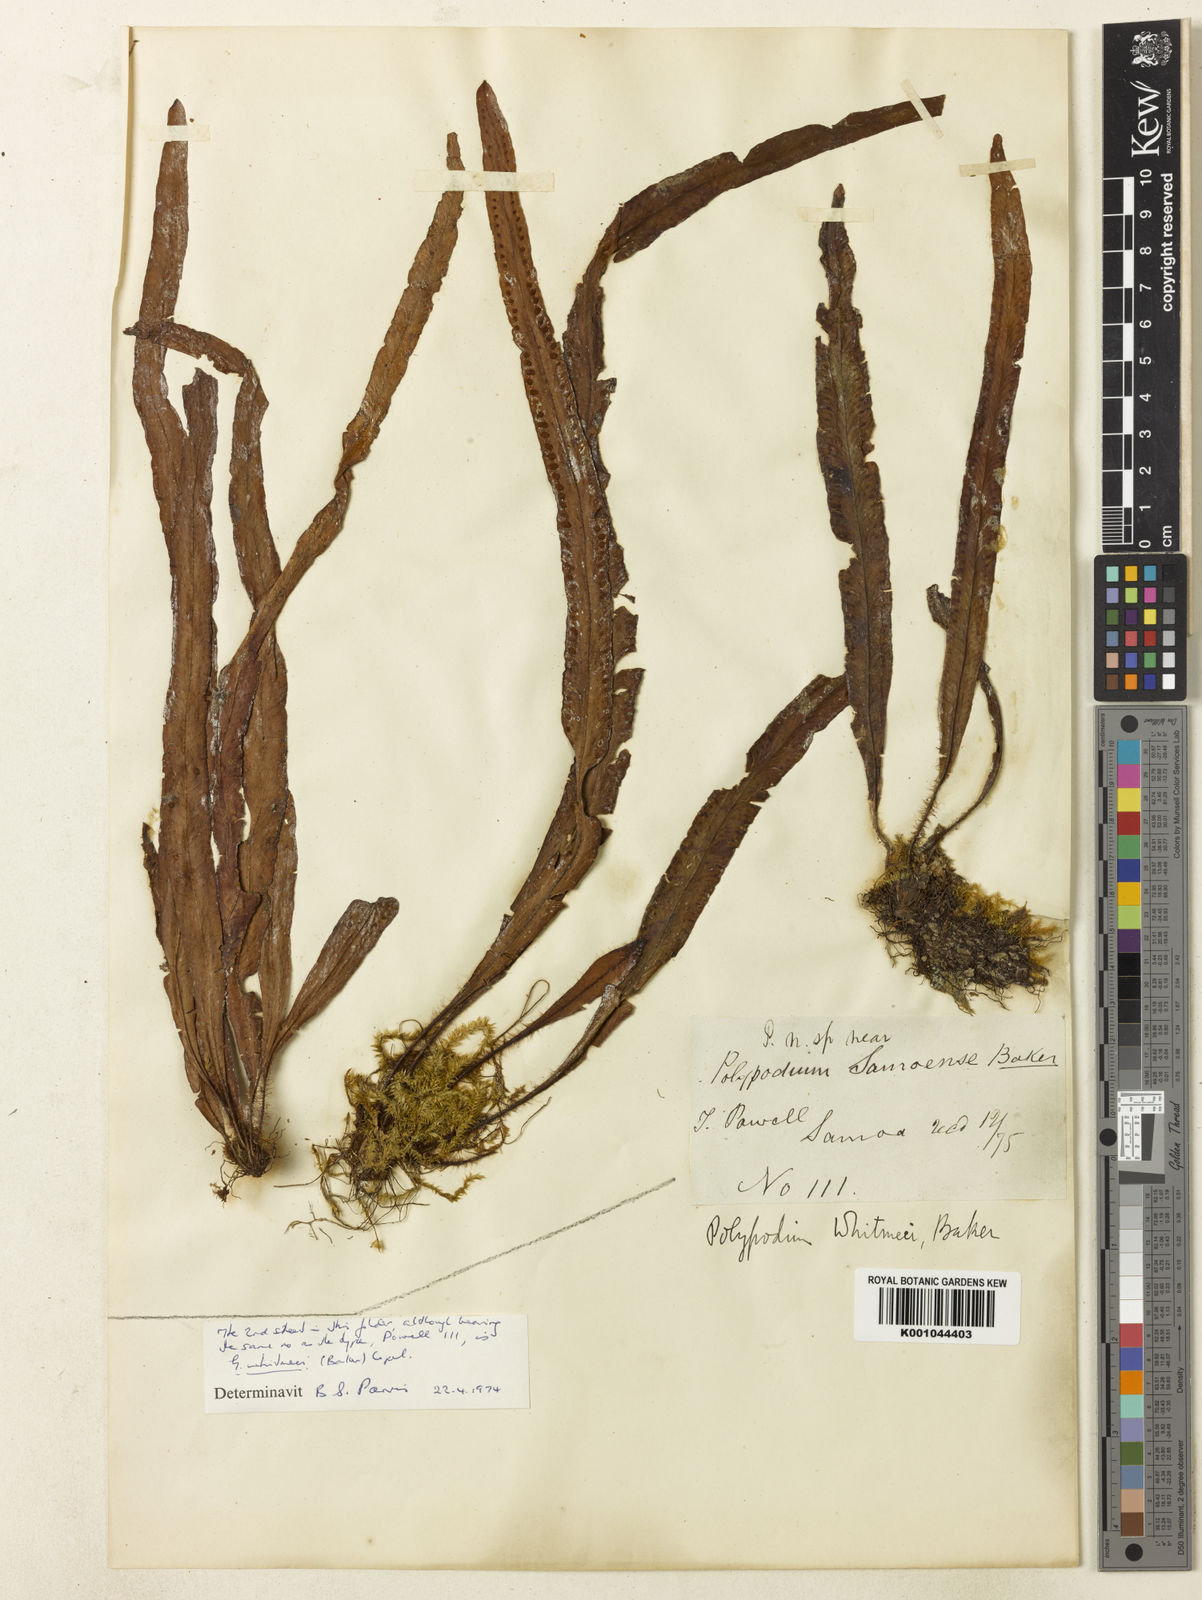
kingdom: Plantae
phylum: Tracheophyta
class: Polypodiopsida
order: Polypodiales
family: Polypodiaceae
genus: Archigrammitis
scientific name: Archigrammitis samoensis
